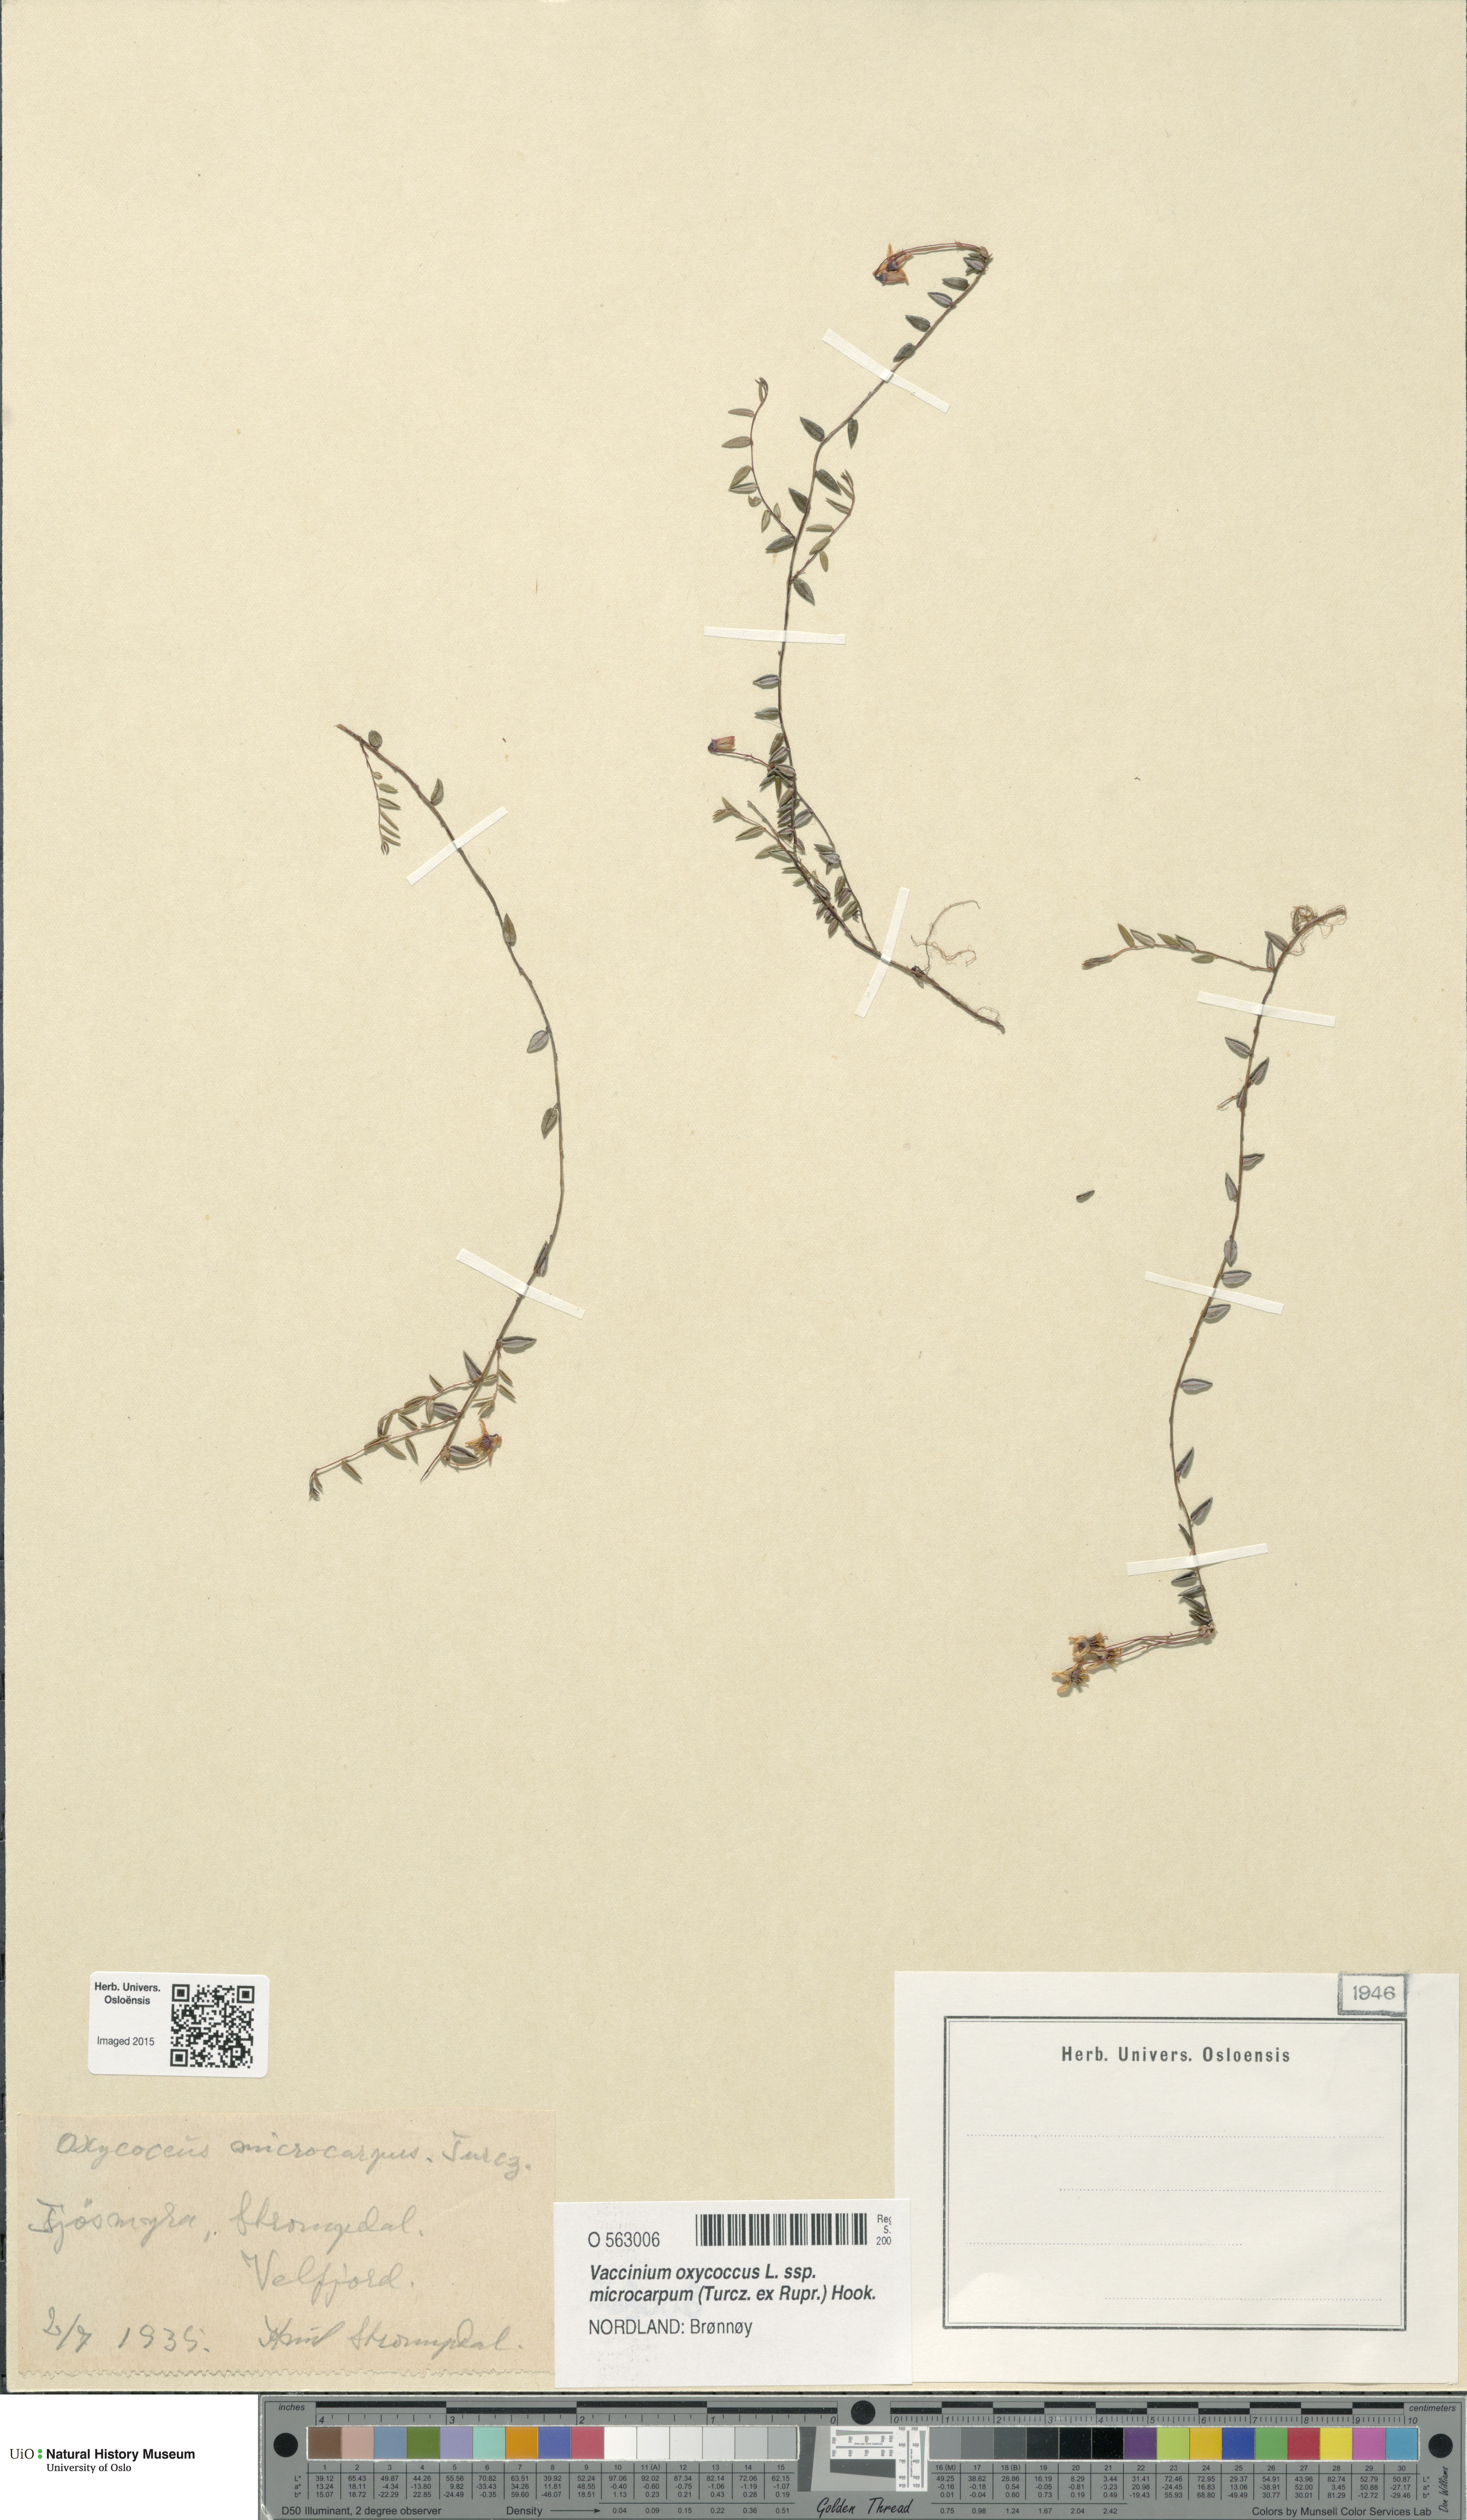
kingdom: Plantae
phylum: Tracheophyta
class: Magnoliopsida
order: Ericales
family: Ericaceae
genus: Vaccinium
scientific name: Vaccinium microcarpum
